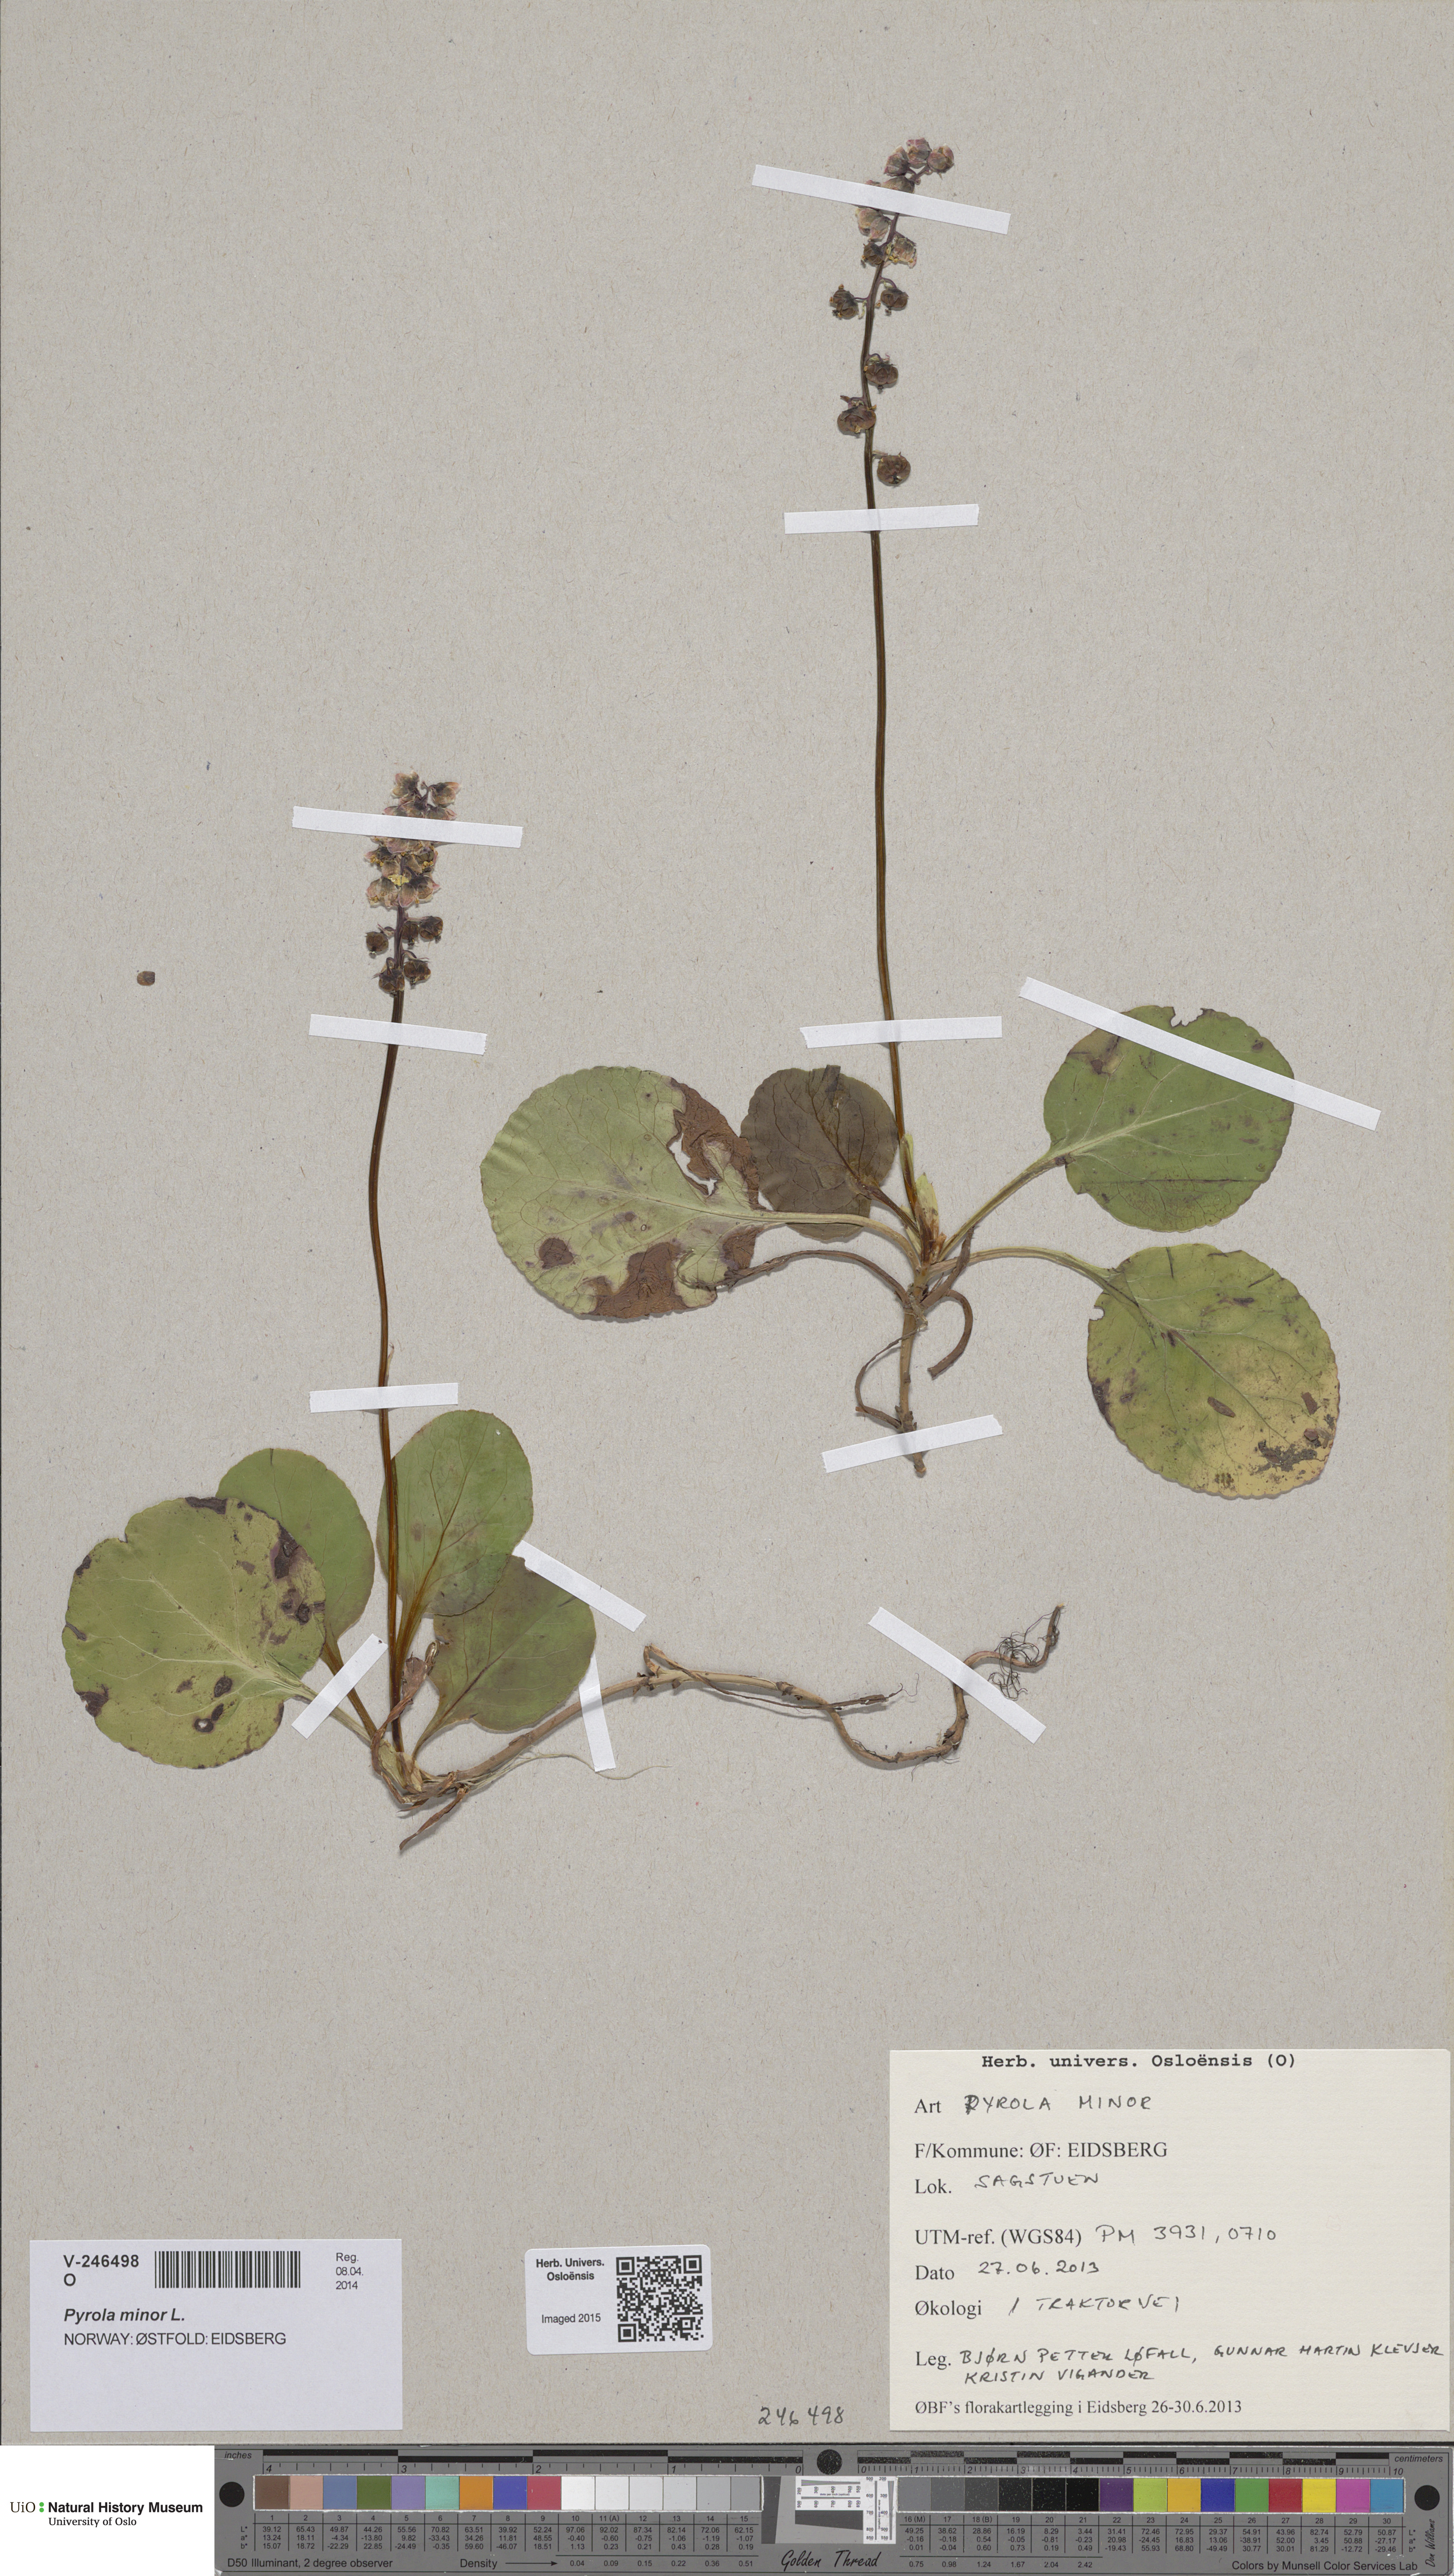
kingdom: Plantae
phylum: Tracheophyta
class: Magnoliopsida
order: Ericales
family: Ericaceae
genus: Pyrola
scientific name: Pyrola minor
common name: Common wintergreen
